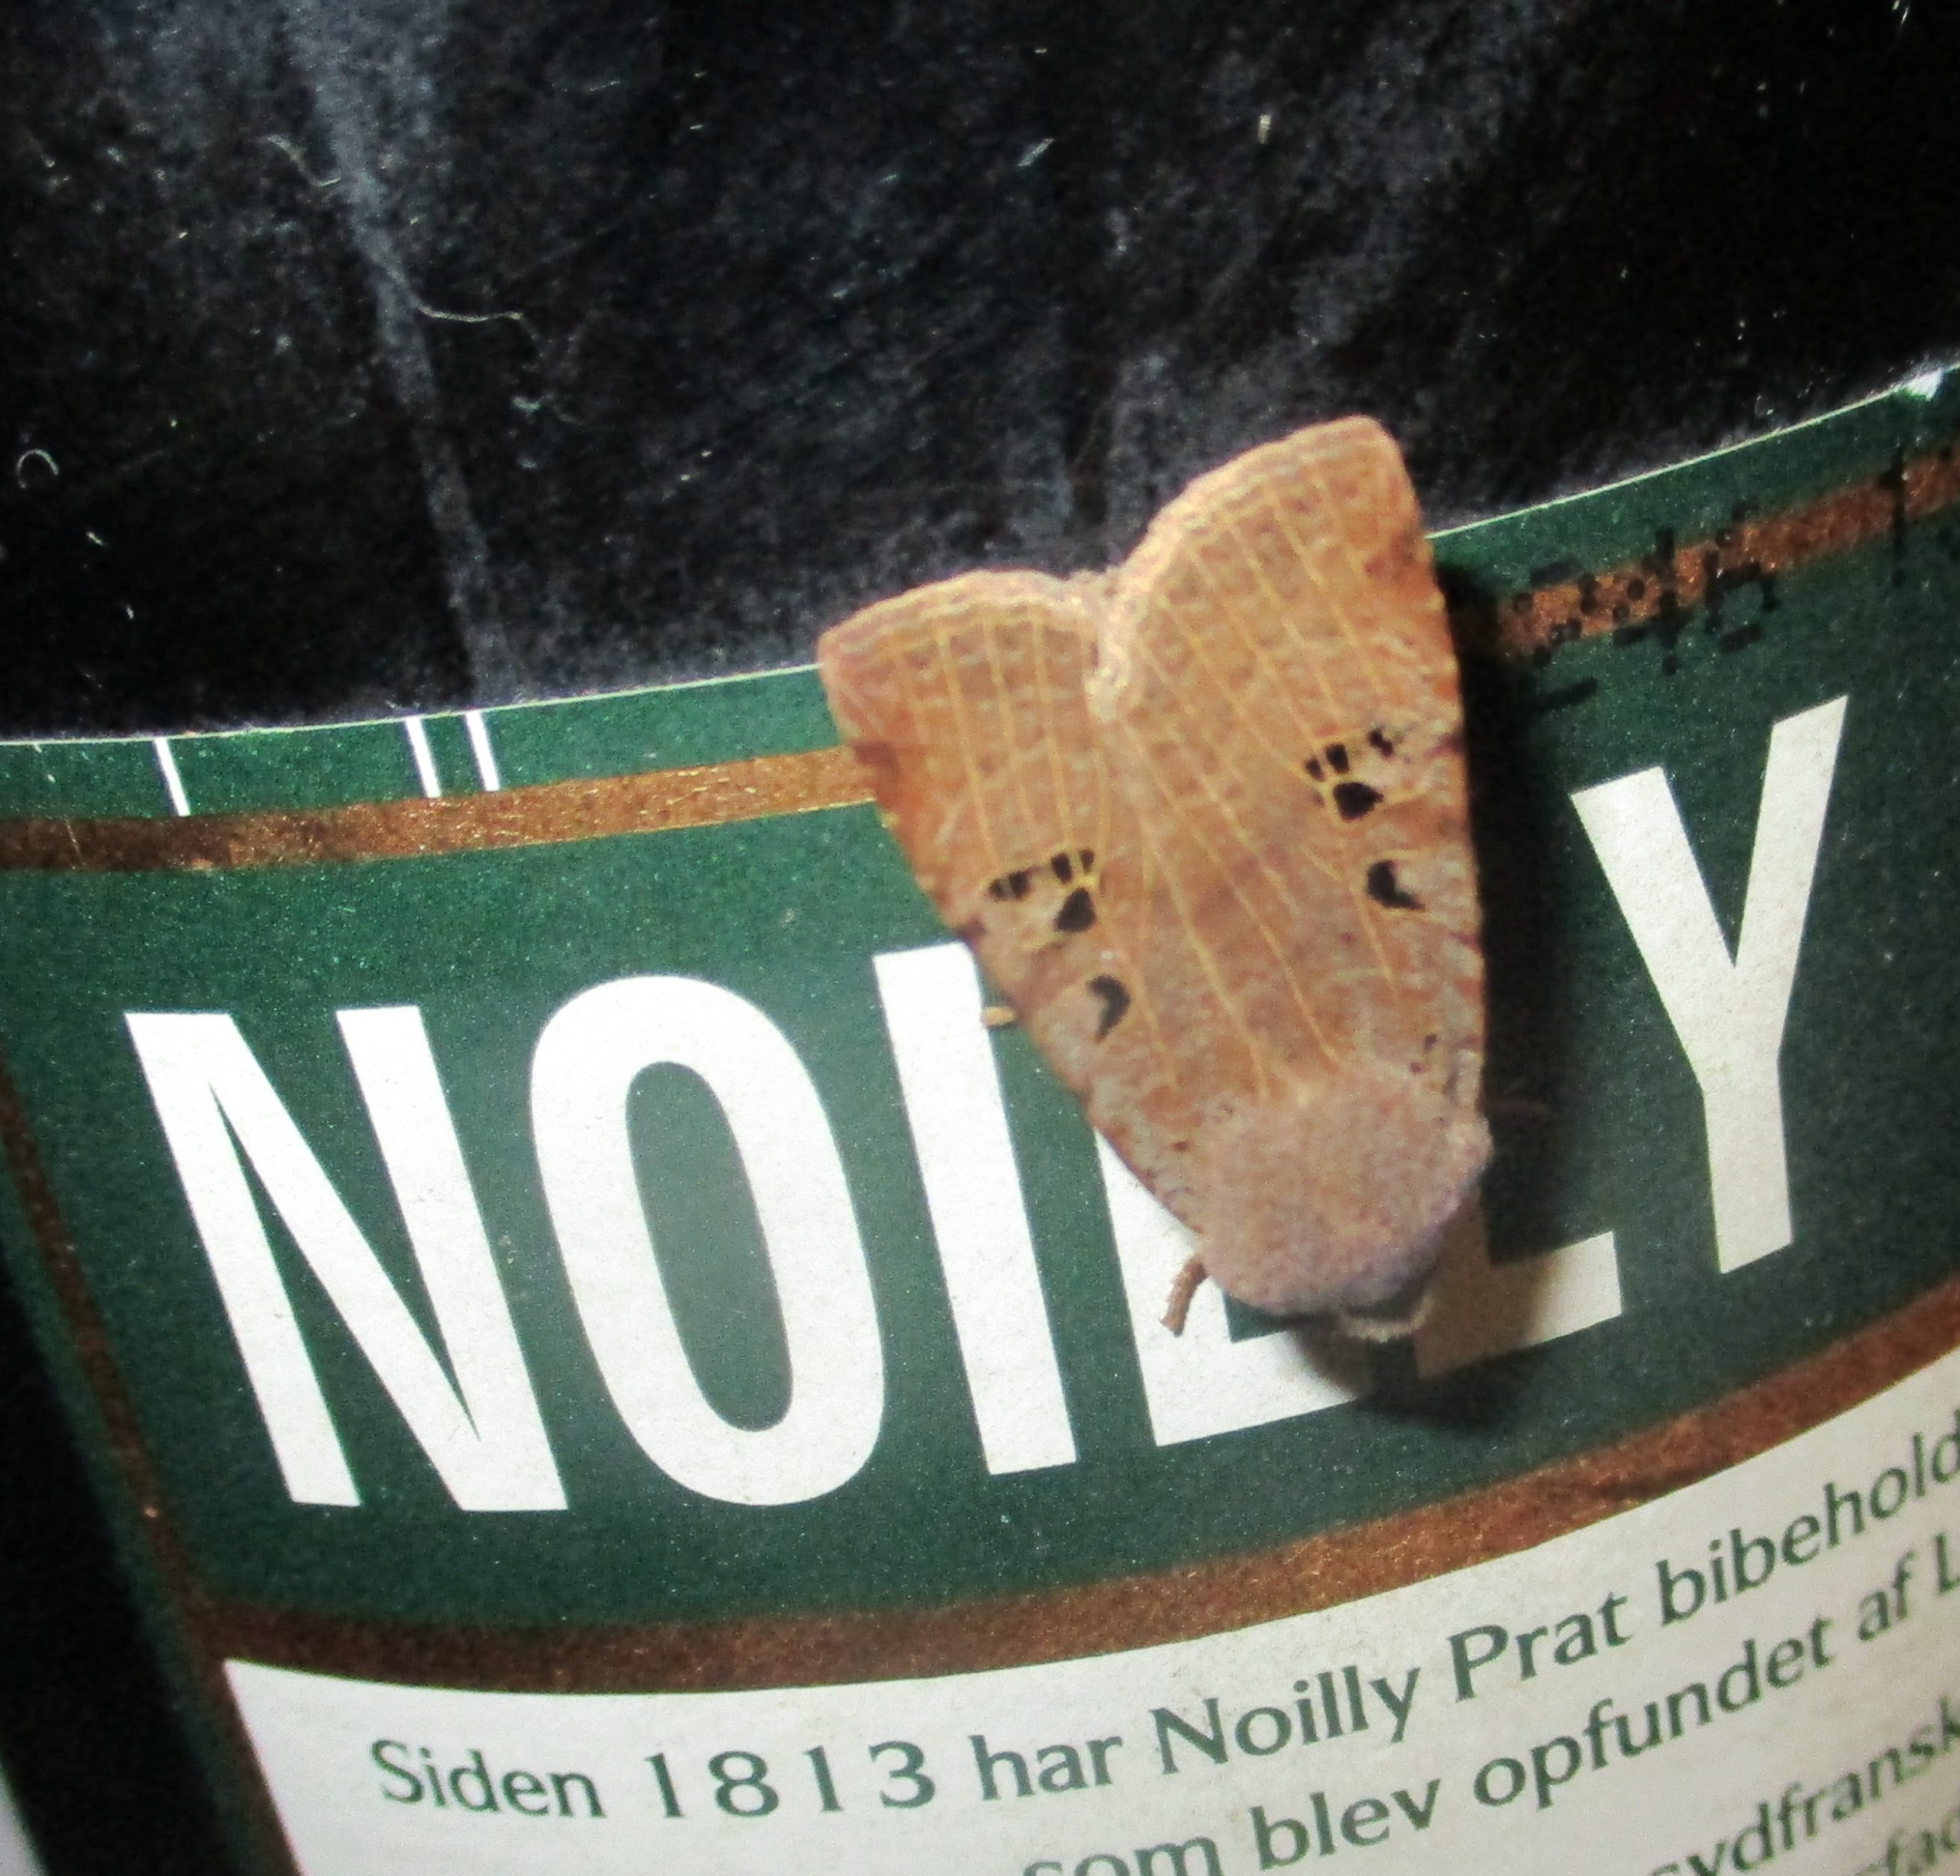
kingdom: Animalia
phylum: Arthropoda
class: Insecta
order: Lepidoptera
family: Noctuidae
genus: Conistra
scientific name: Conistra rubiginosa
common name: Sortmærket overvintringsugle
